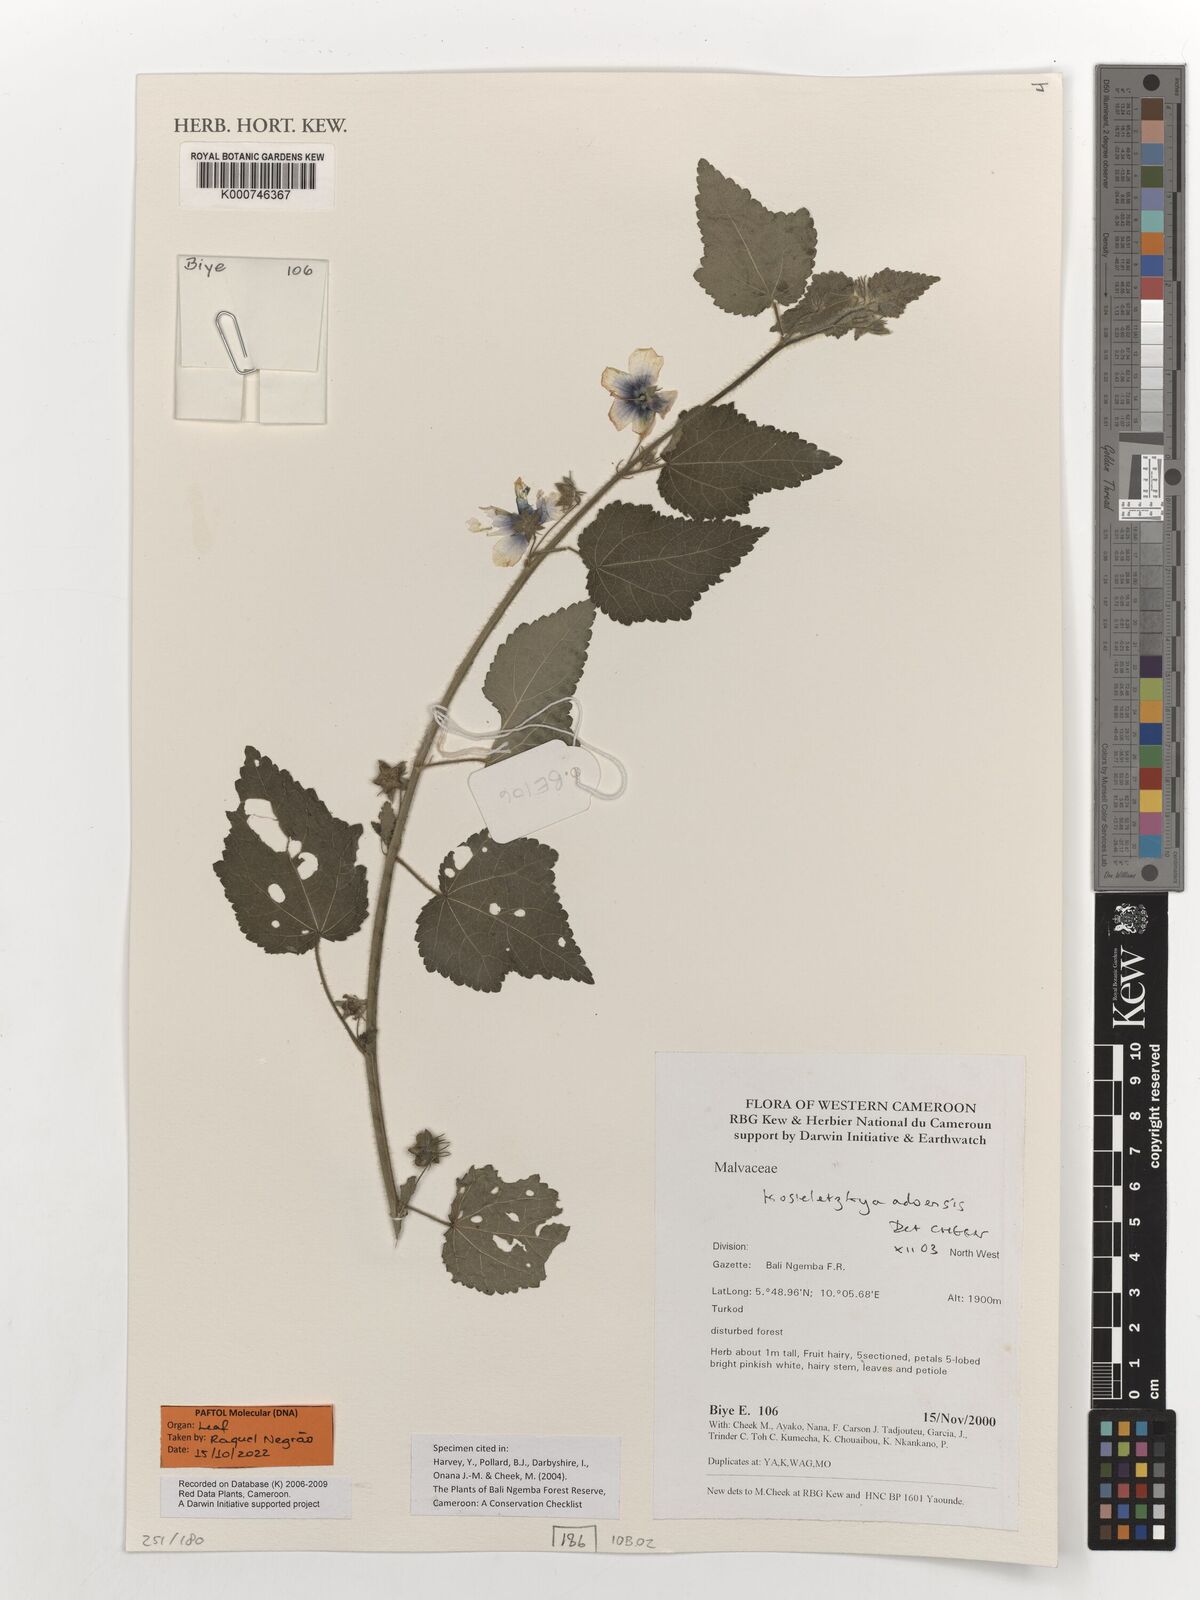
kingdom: Plantae
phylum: Tracheophyta
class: Magnoliopsida
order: Malvales
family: Malvaceae
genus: Kosteletzkya
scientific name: Kosteletzkya adoensis
